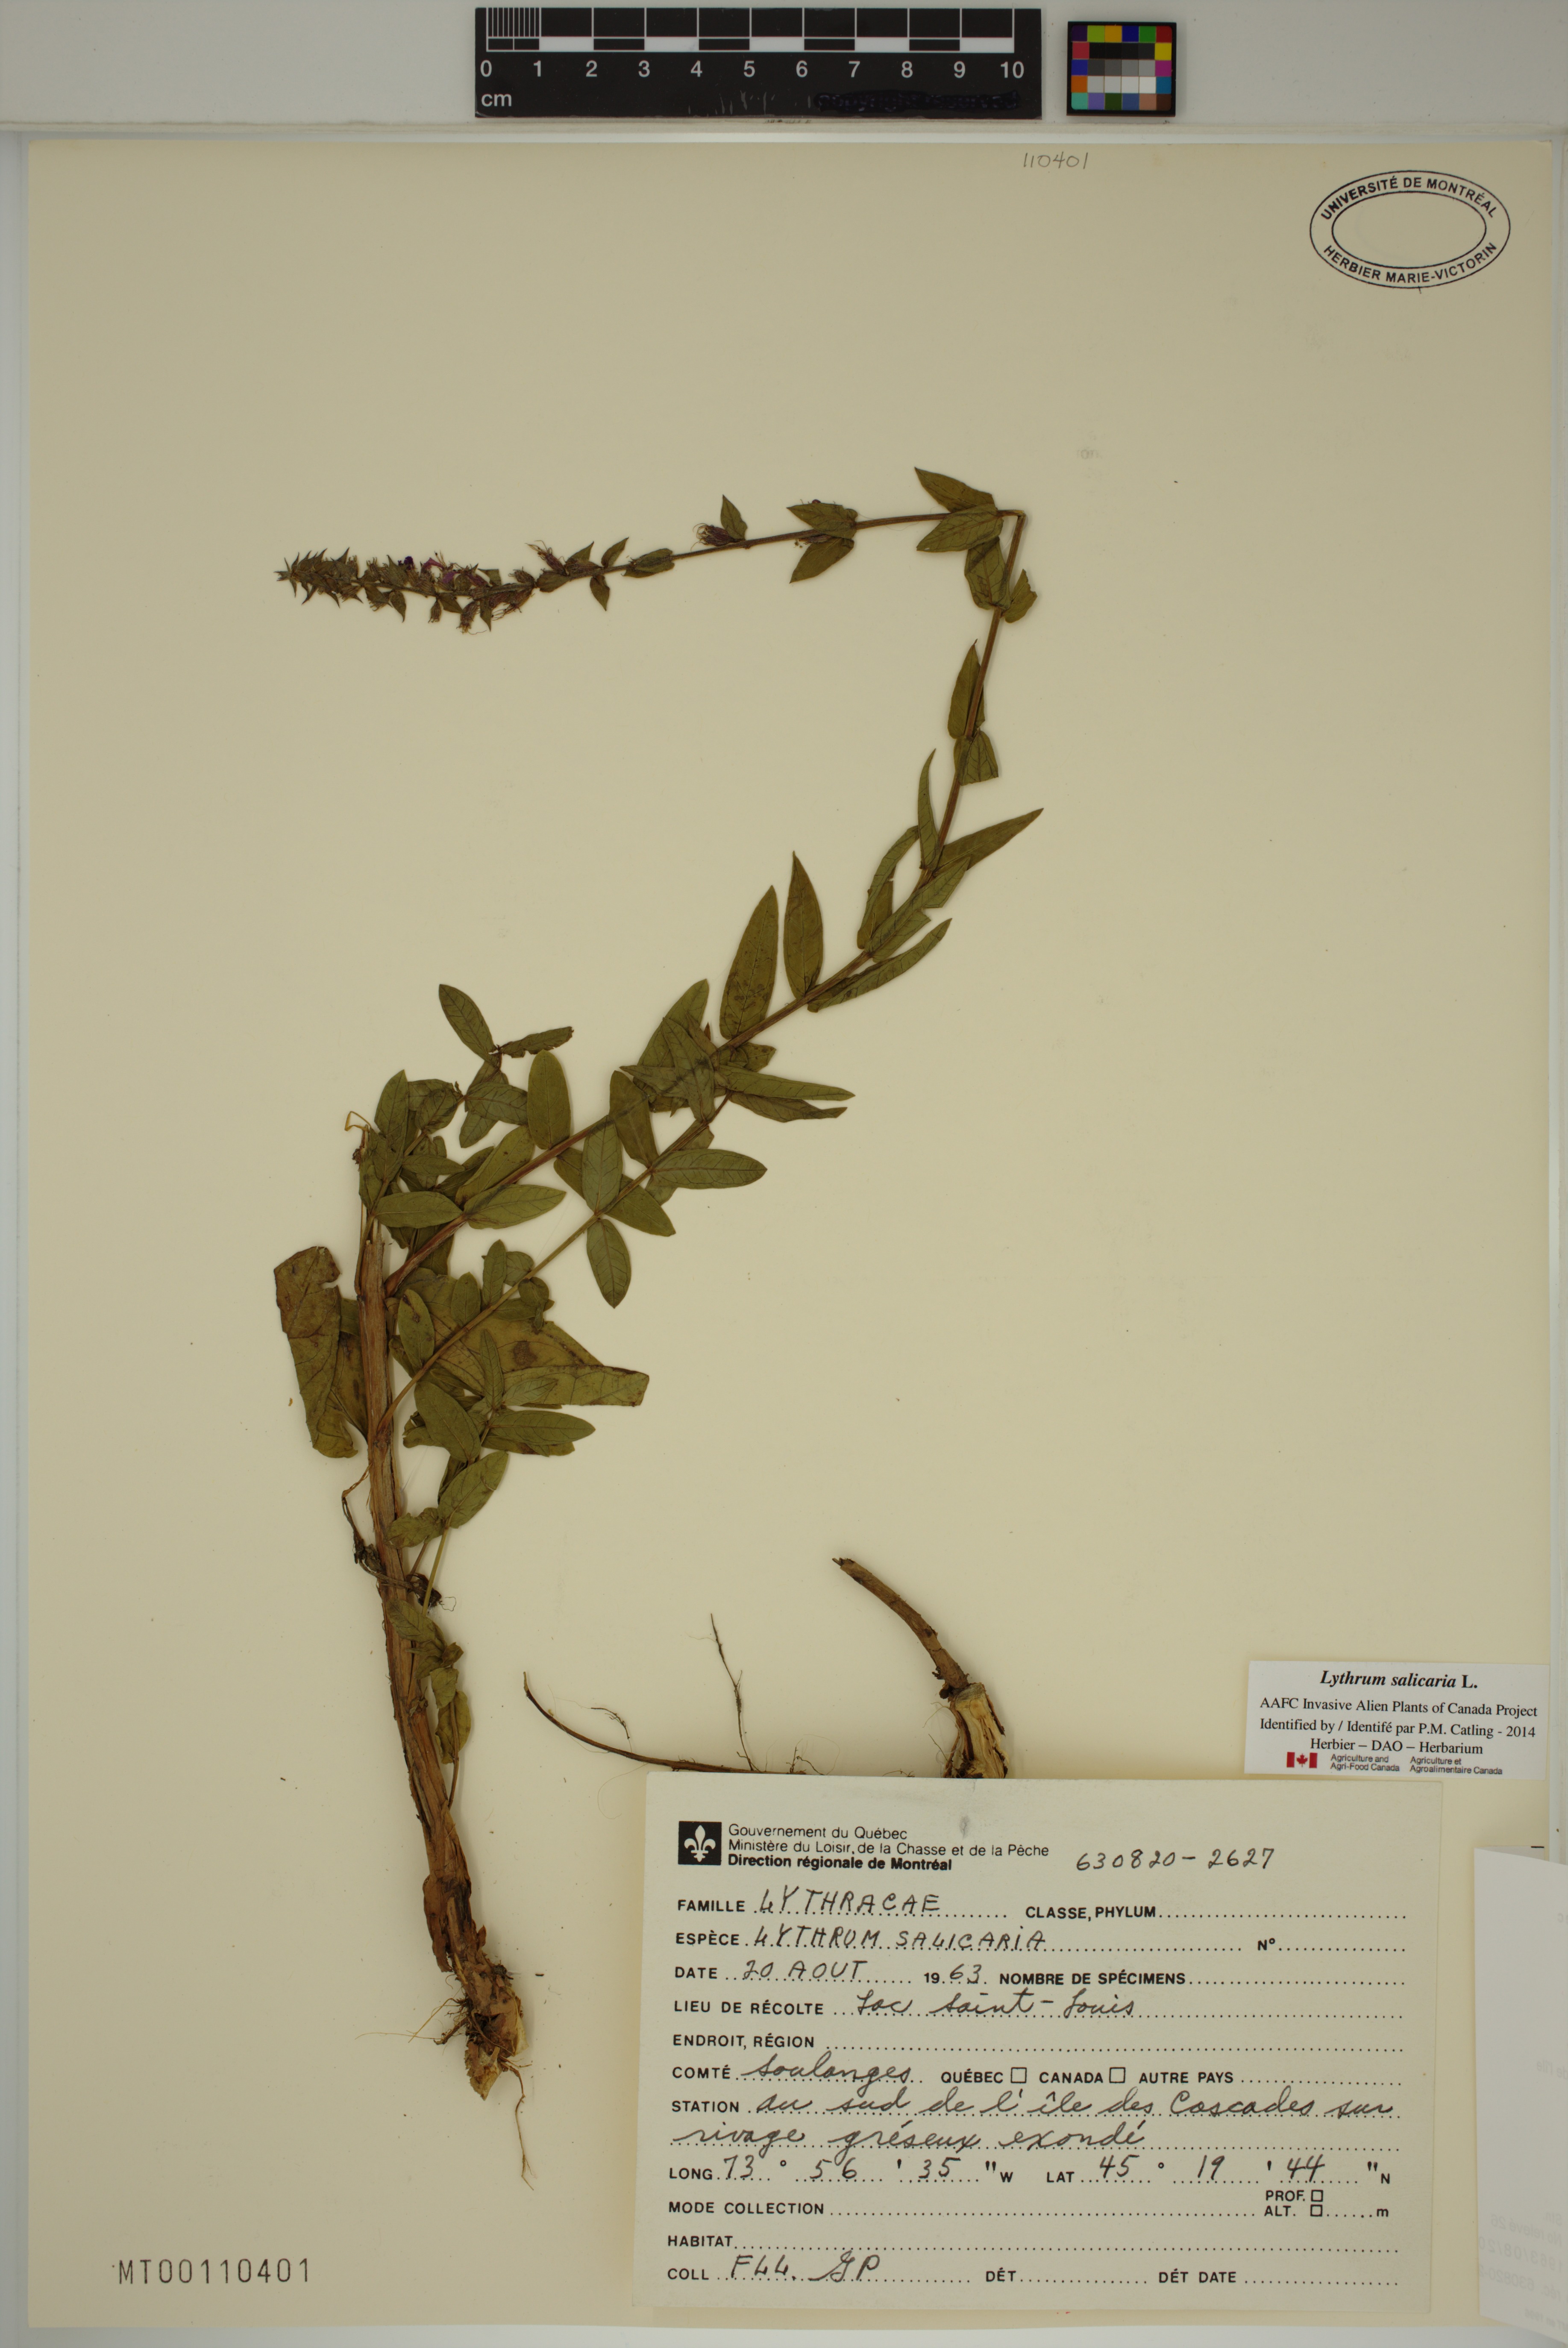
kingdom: Plantae
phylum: Tracheophyta
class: Magnoliopsida
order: Myrtales
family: Lythraceae
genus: Lythrum
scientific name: Lythrum salicaria
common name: Purple loosestrife
